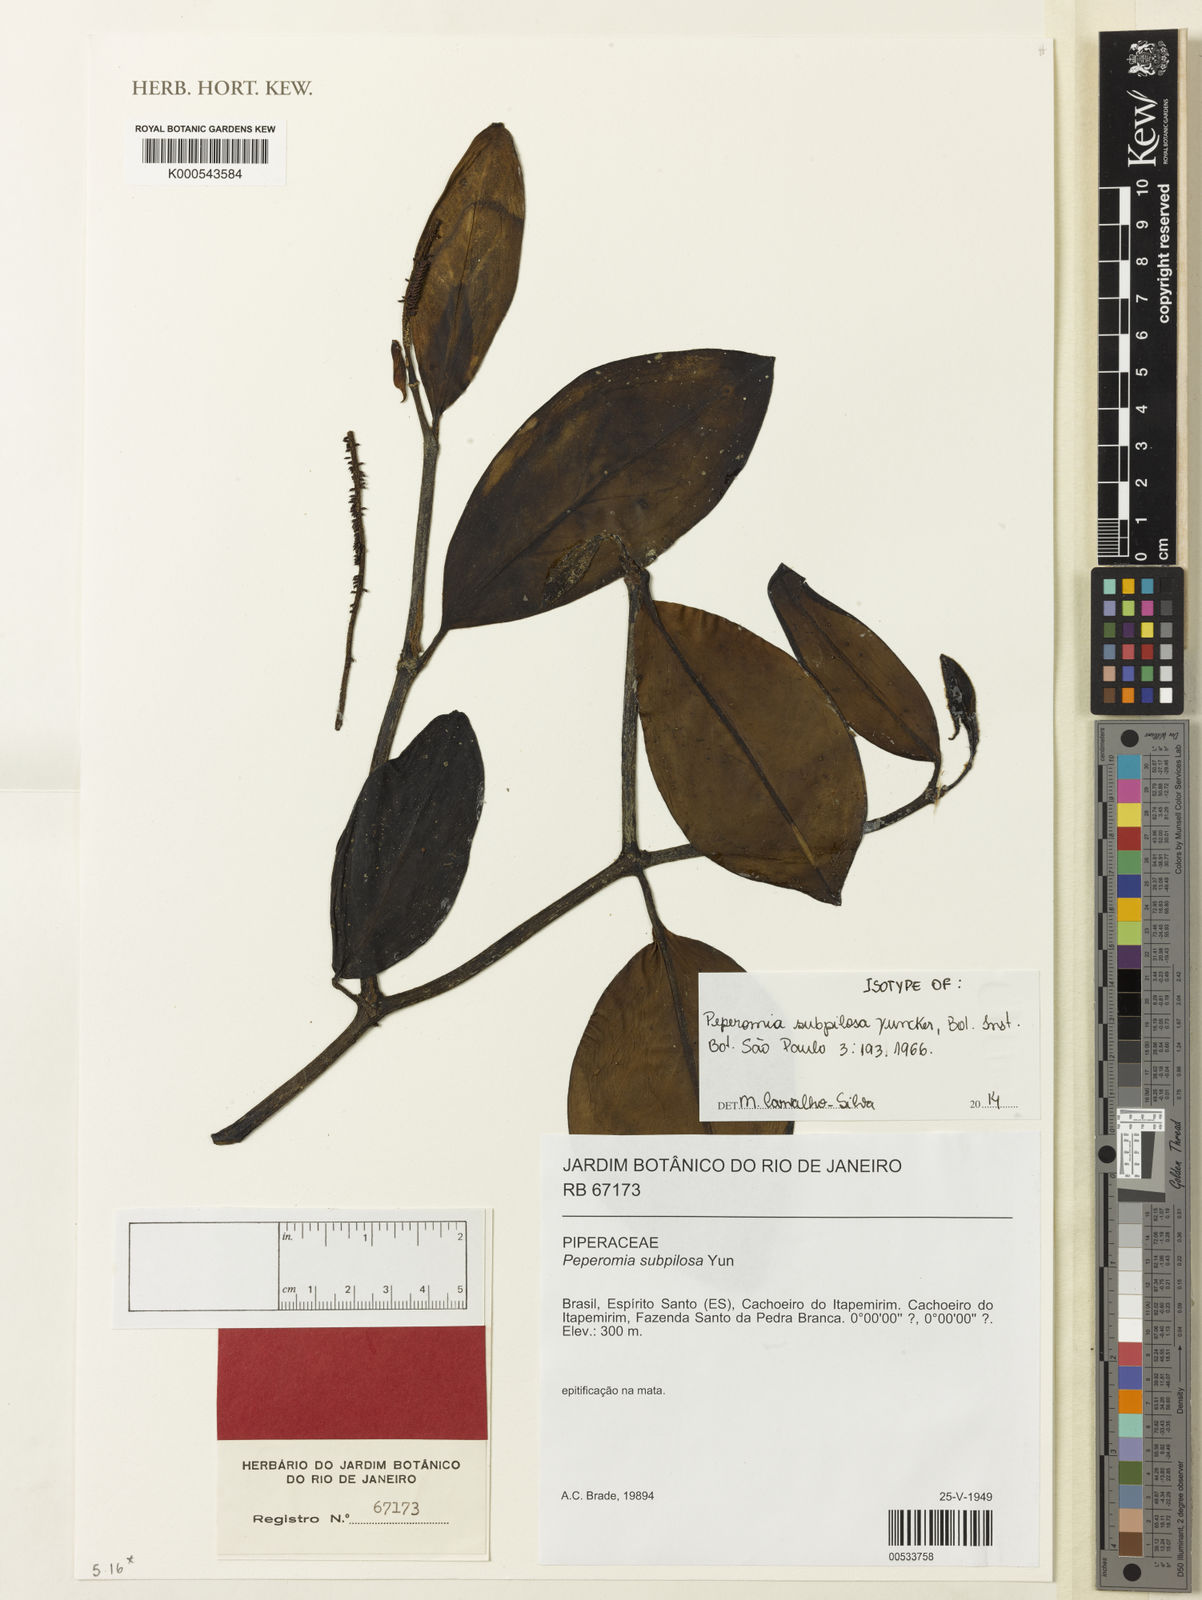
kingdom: Plantae
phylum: Tracheophyta
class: Magnoliopsida
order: Piperales
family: Piperaceae
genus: Peperomia
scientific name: Peperomia subpilosa
